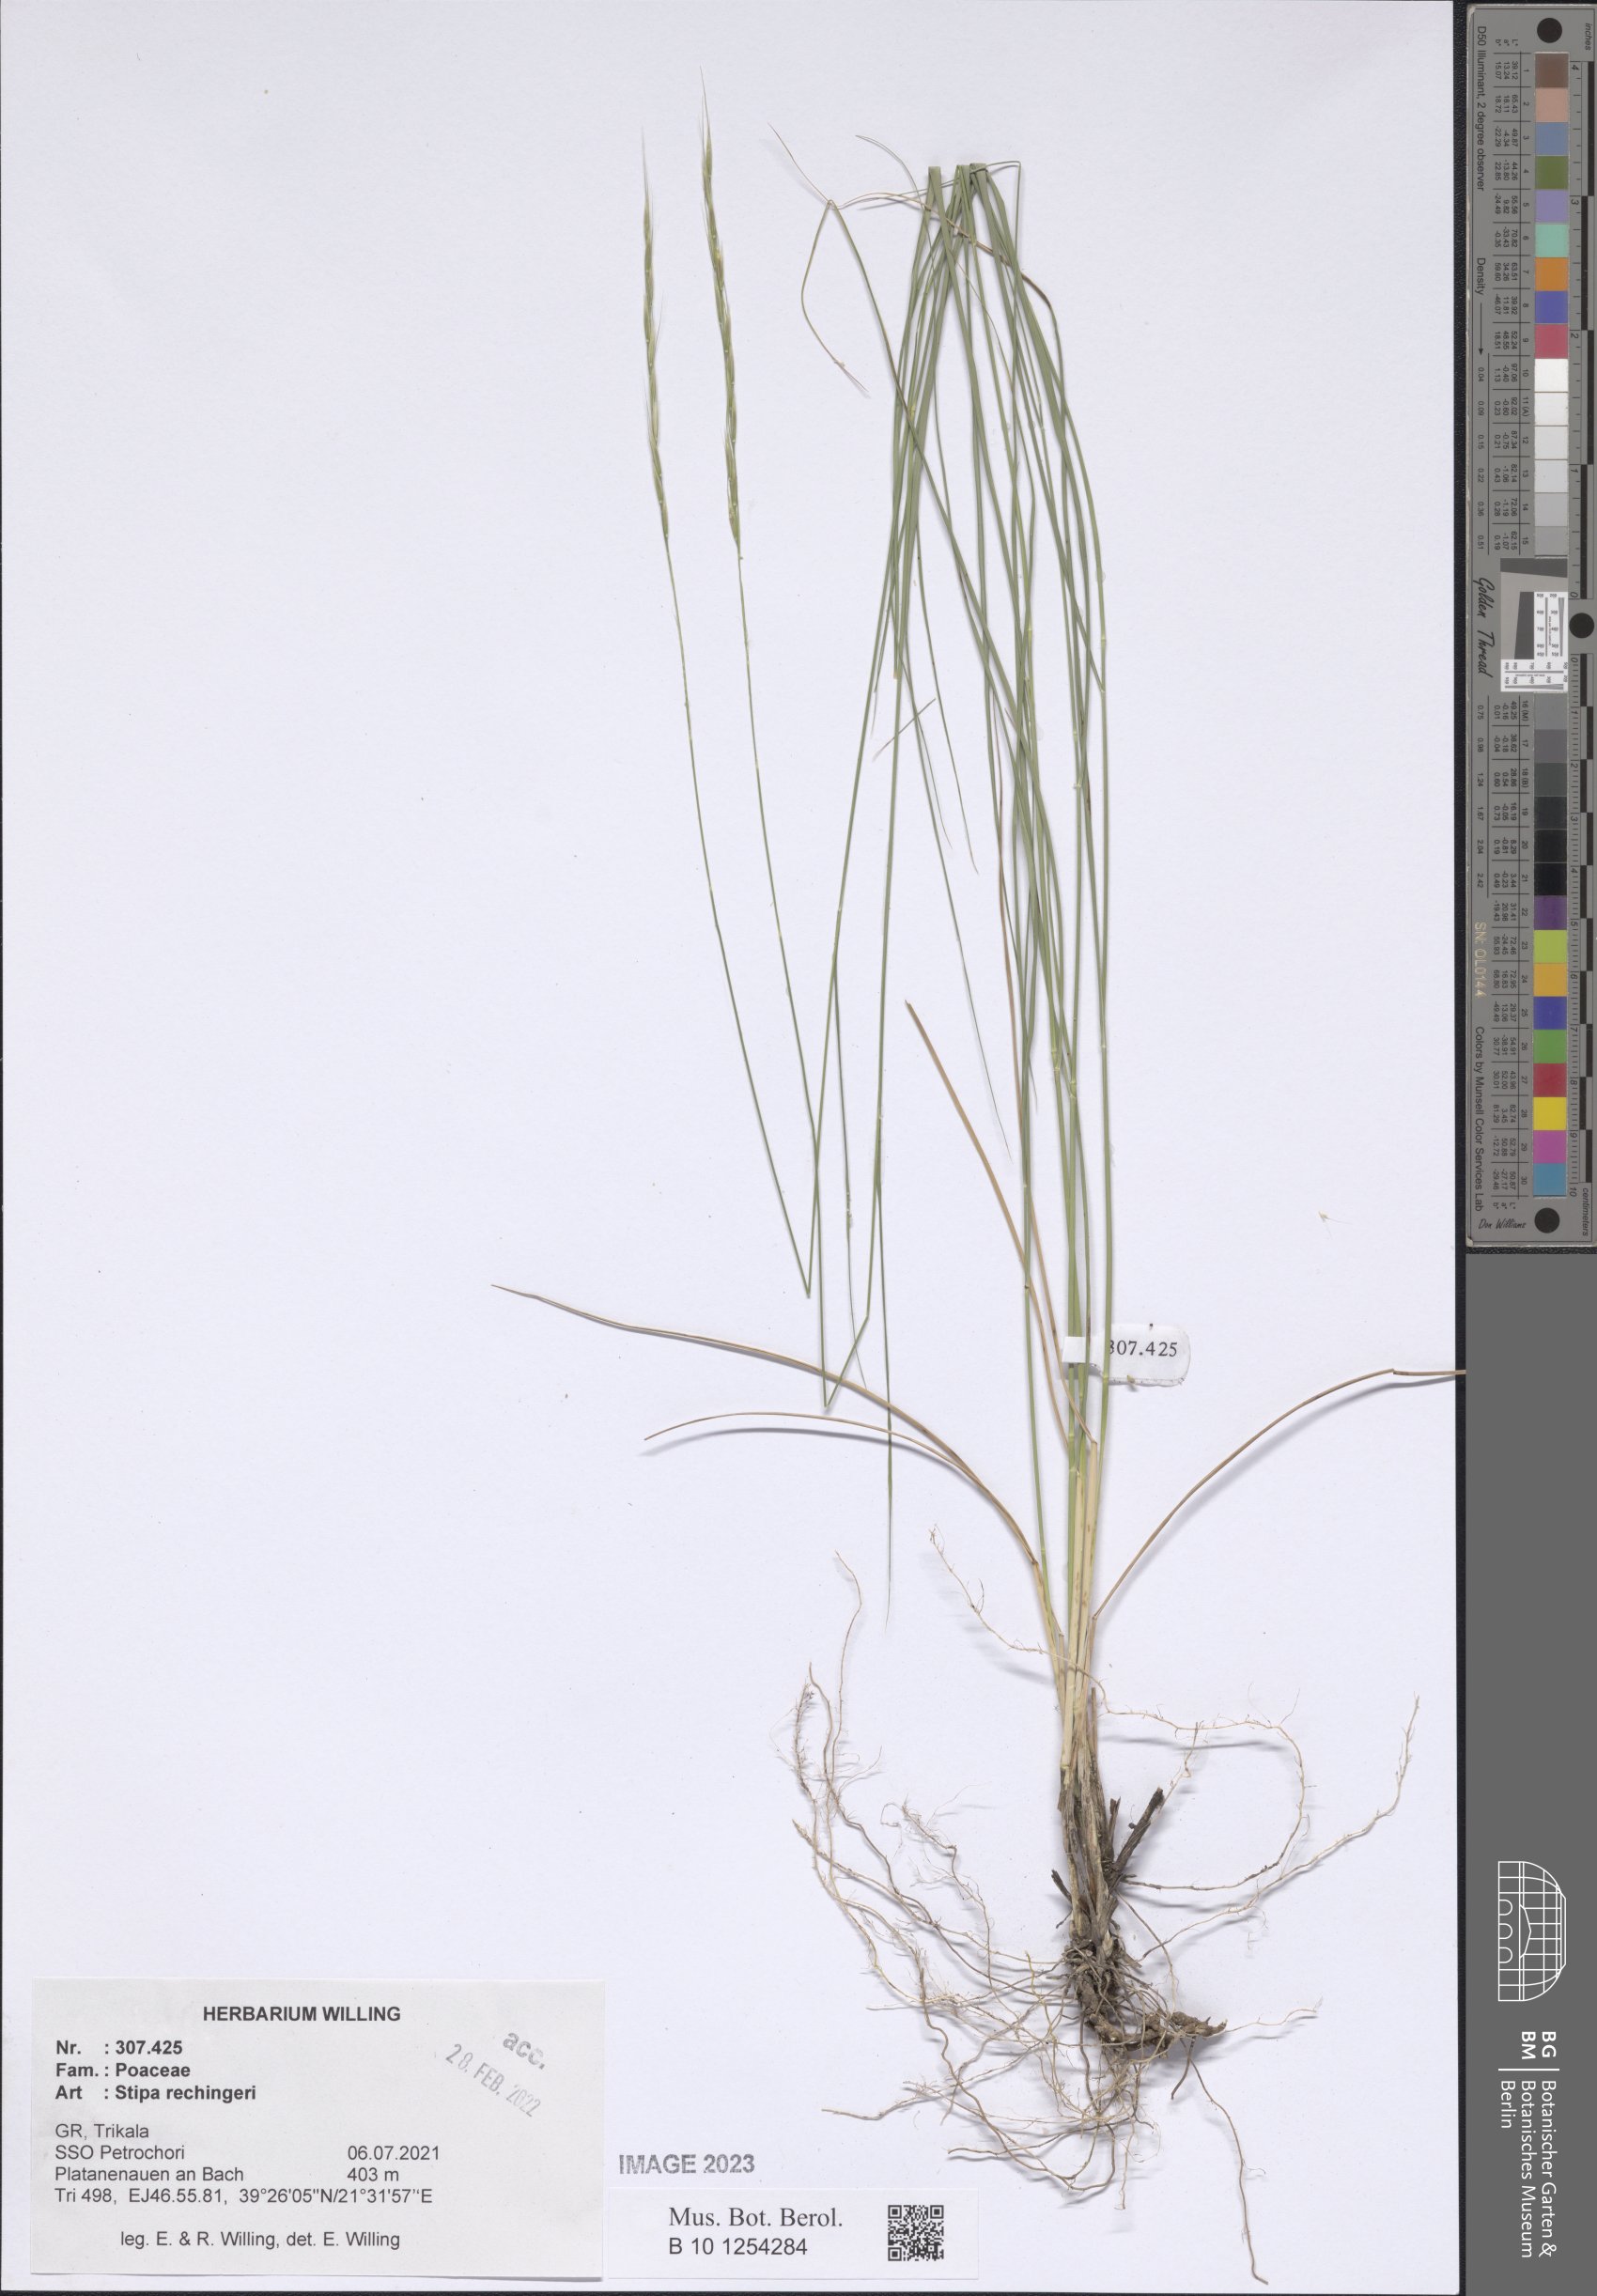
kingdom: Plantae
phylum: Tracheophyta
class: Liliopsida
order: Poales
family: Poaceae
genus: Stipa
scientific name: Stipa rechingeri
